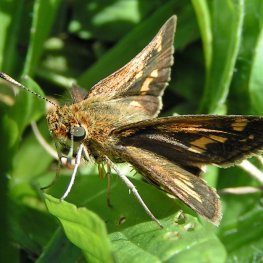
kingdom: Animalia
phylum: Arthropoda
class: Insecta
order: Lepidoptera
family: Hesperiidae
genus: Polites
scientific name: Polites coras
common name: Peck's Skipper
